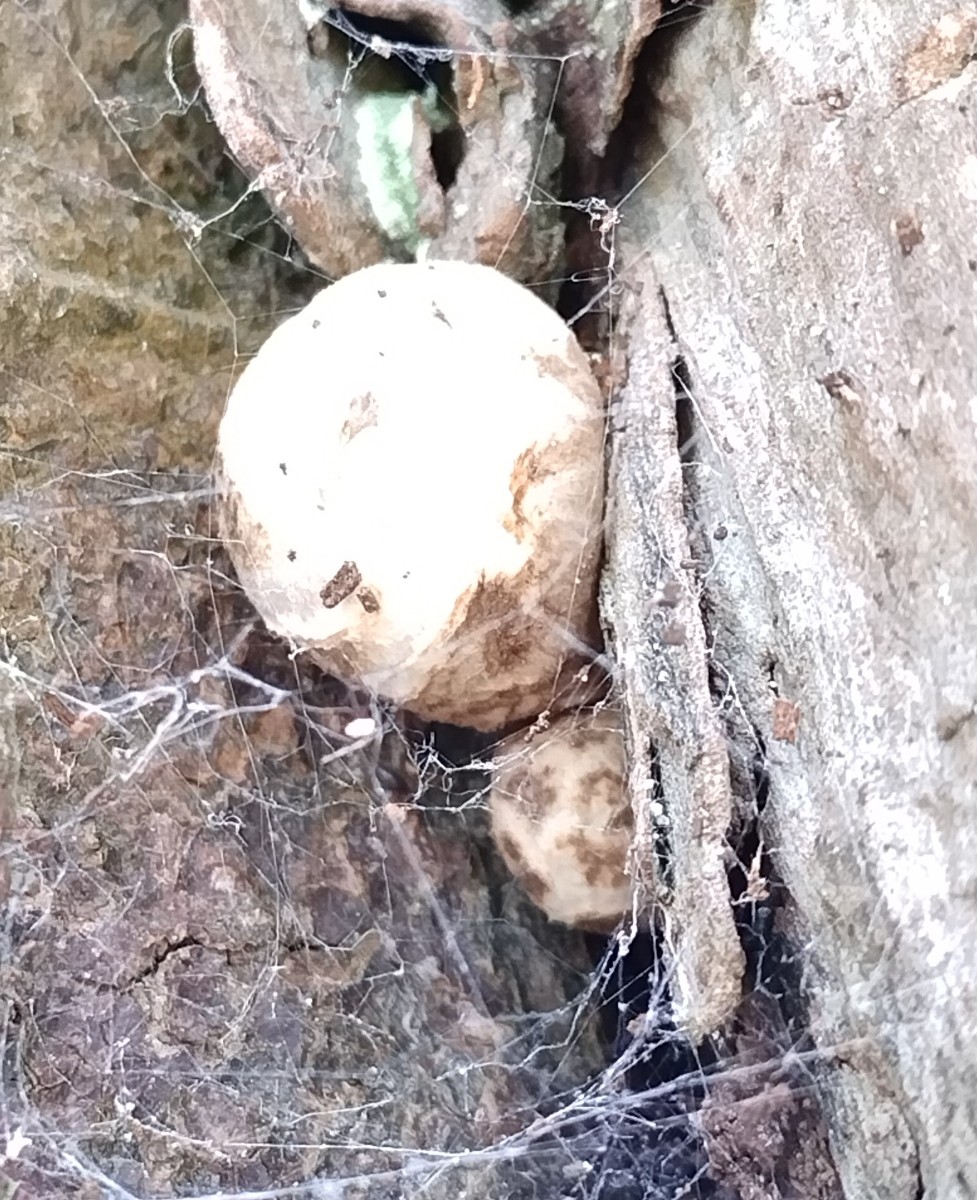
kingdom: Fungi
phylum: Basidiomycota
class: Agaricomycetes
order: Agaricales
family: Pluteaceae
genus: Volvariella
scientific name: Volvariella bombycina
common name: silkehåret posesvamp
